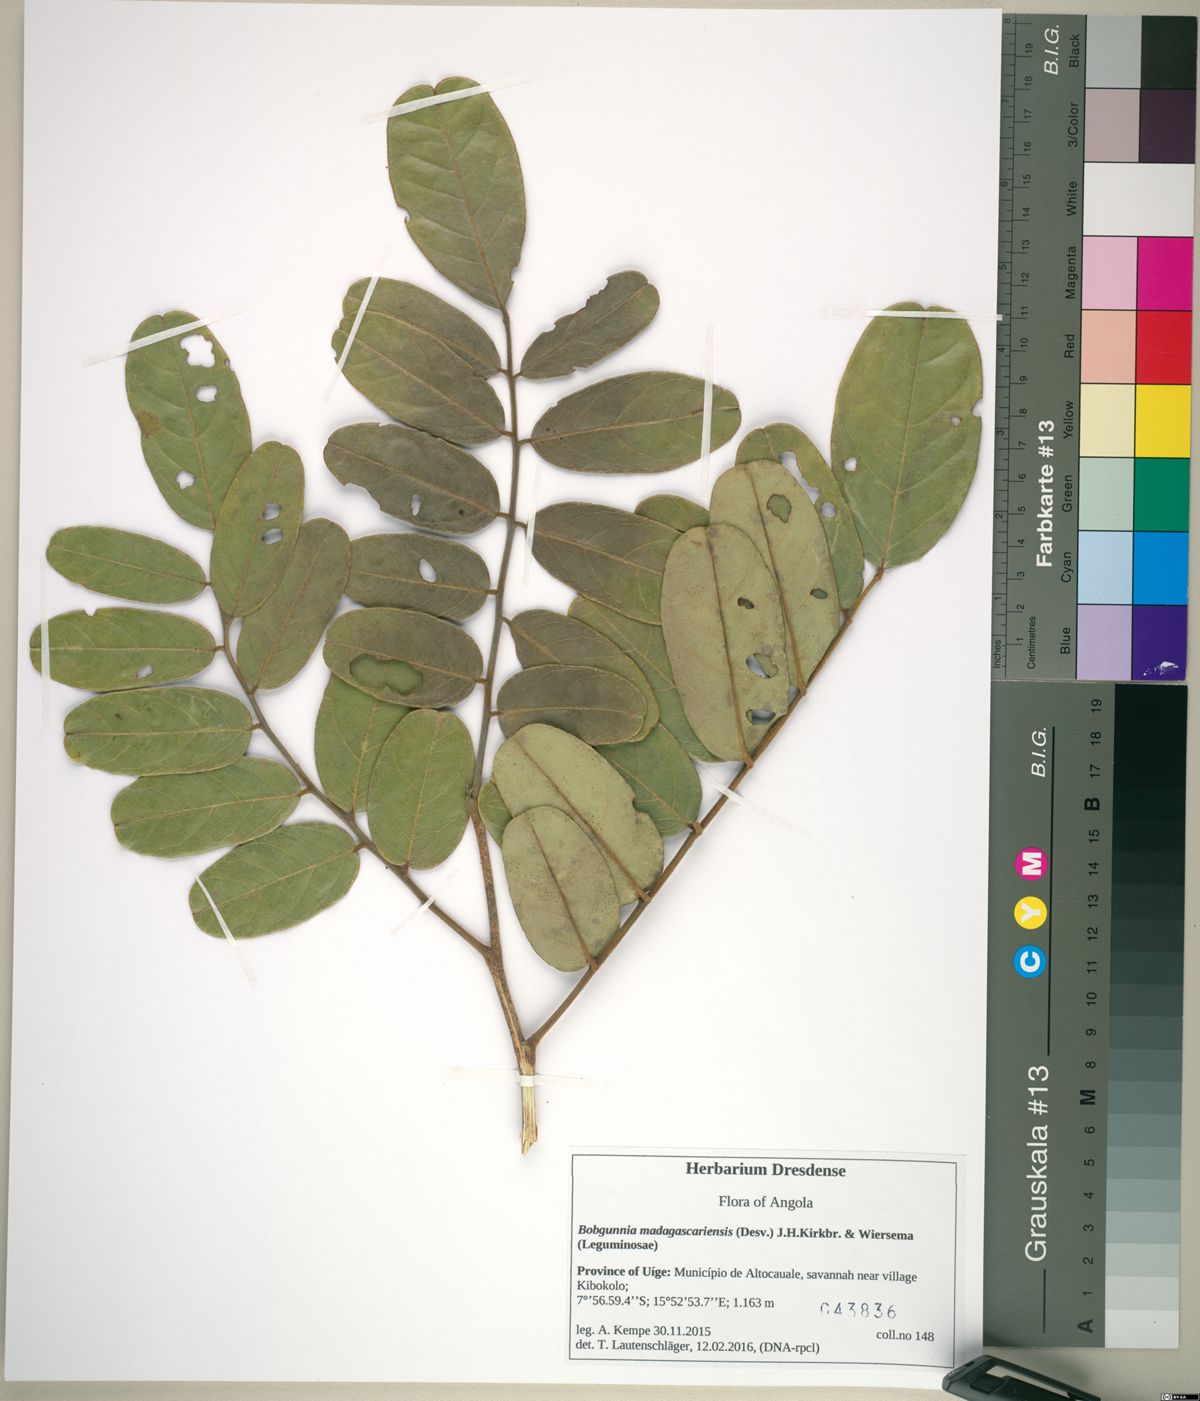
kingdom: Plantae
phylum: Tracheophyta
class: Magnoliopsida
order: Fabales
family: Fabaceae
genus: Bobgunnia
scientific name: Bobgunnia madagascariensis
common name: Snake bean plant
